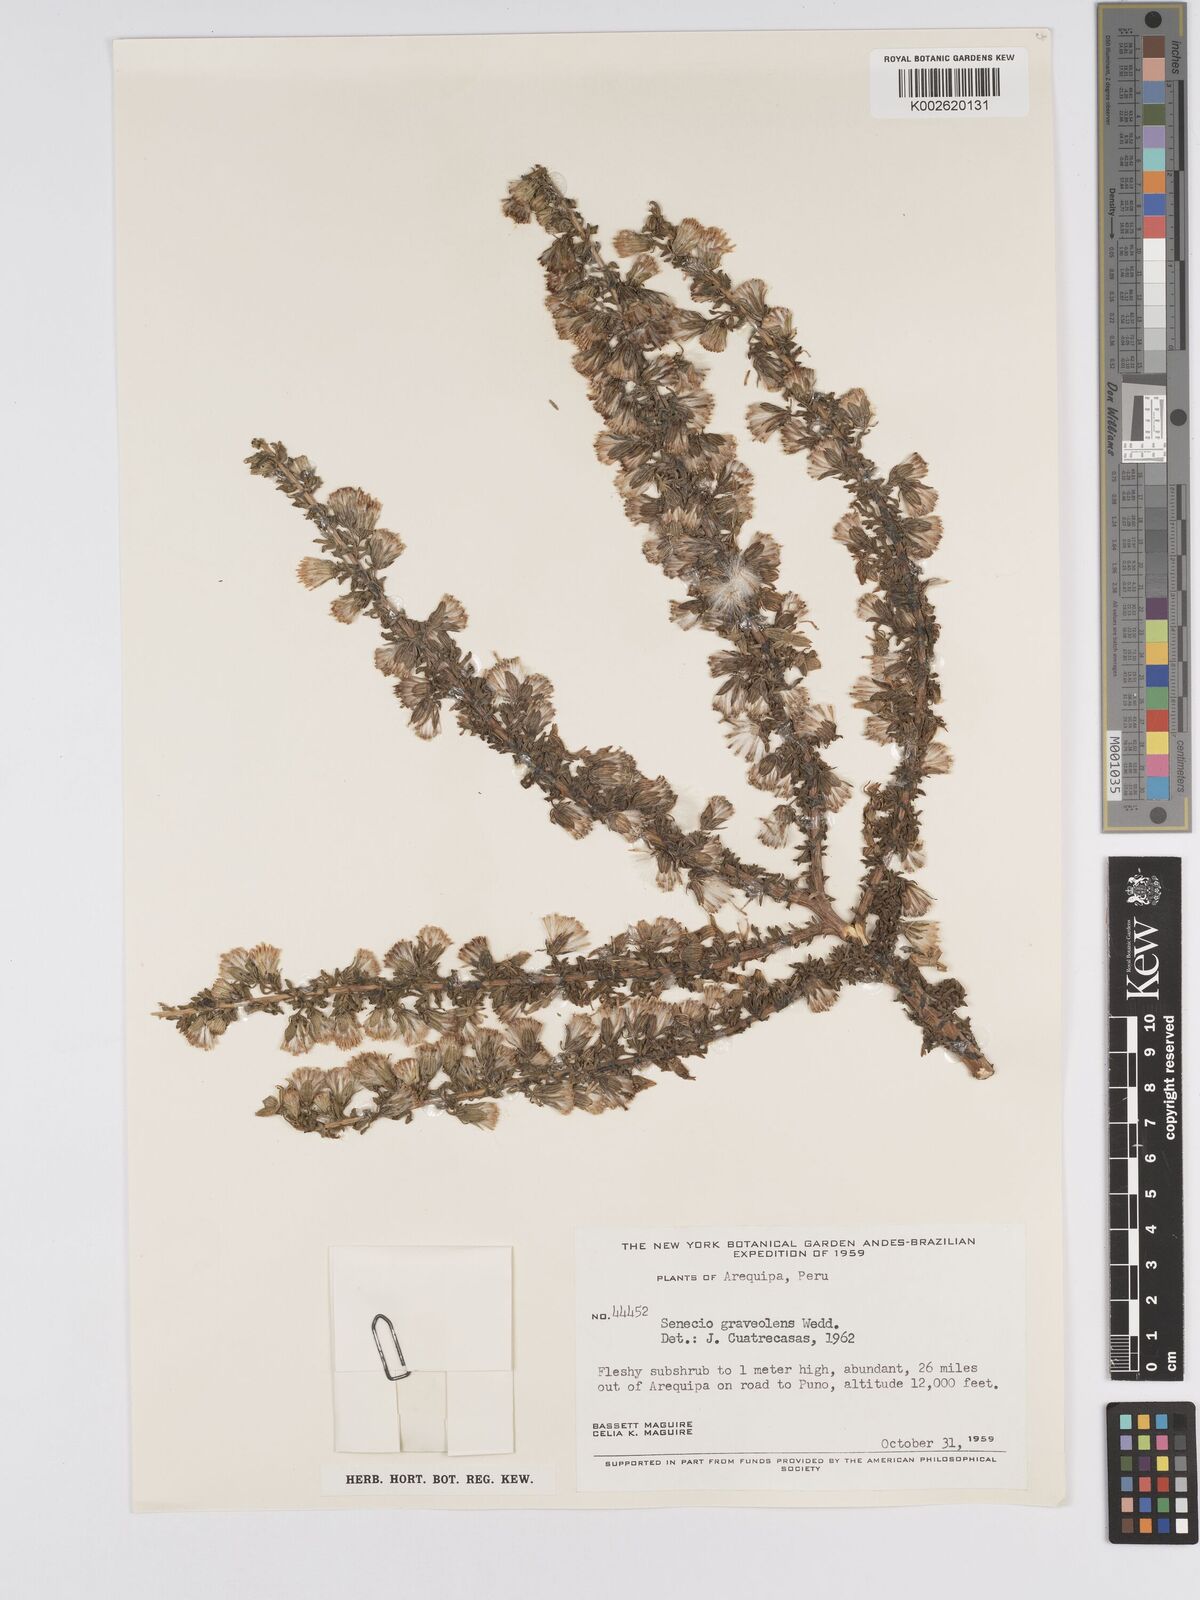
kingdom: Plantae
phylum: Tracheophyta
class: Magnoliopsida
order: Asterales
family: Asteraceae
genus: Senecio
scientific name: Senecio nutans
